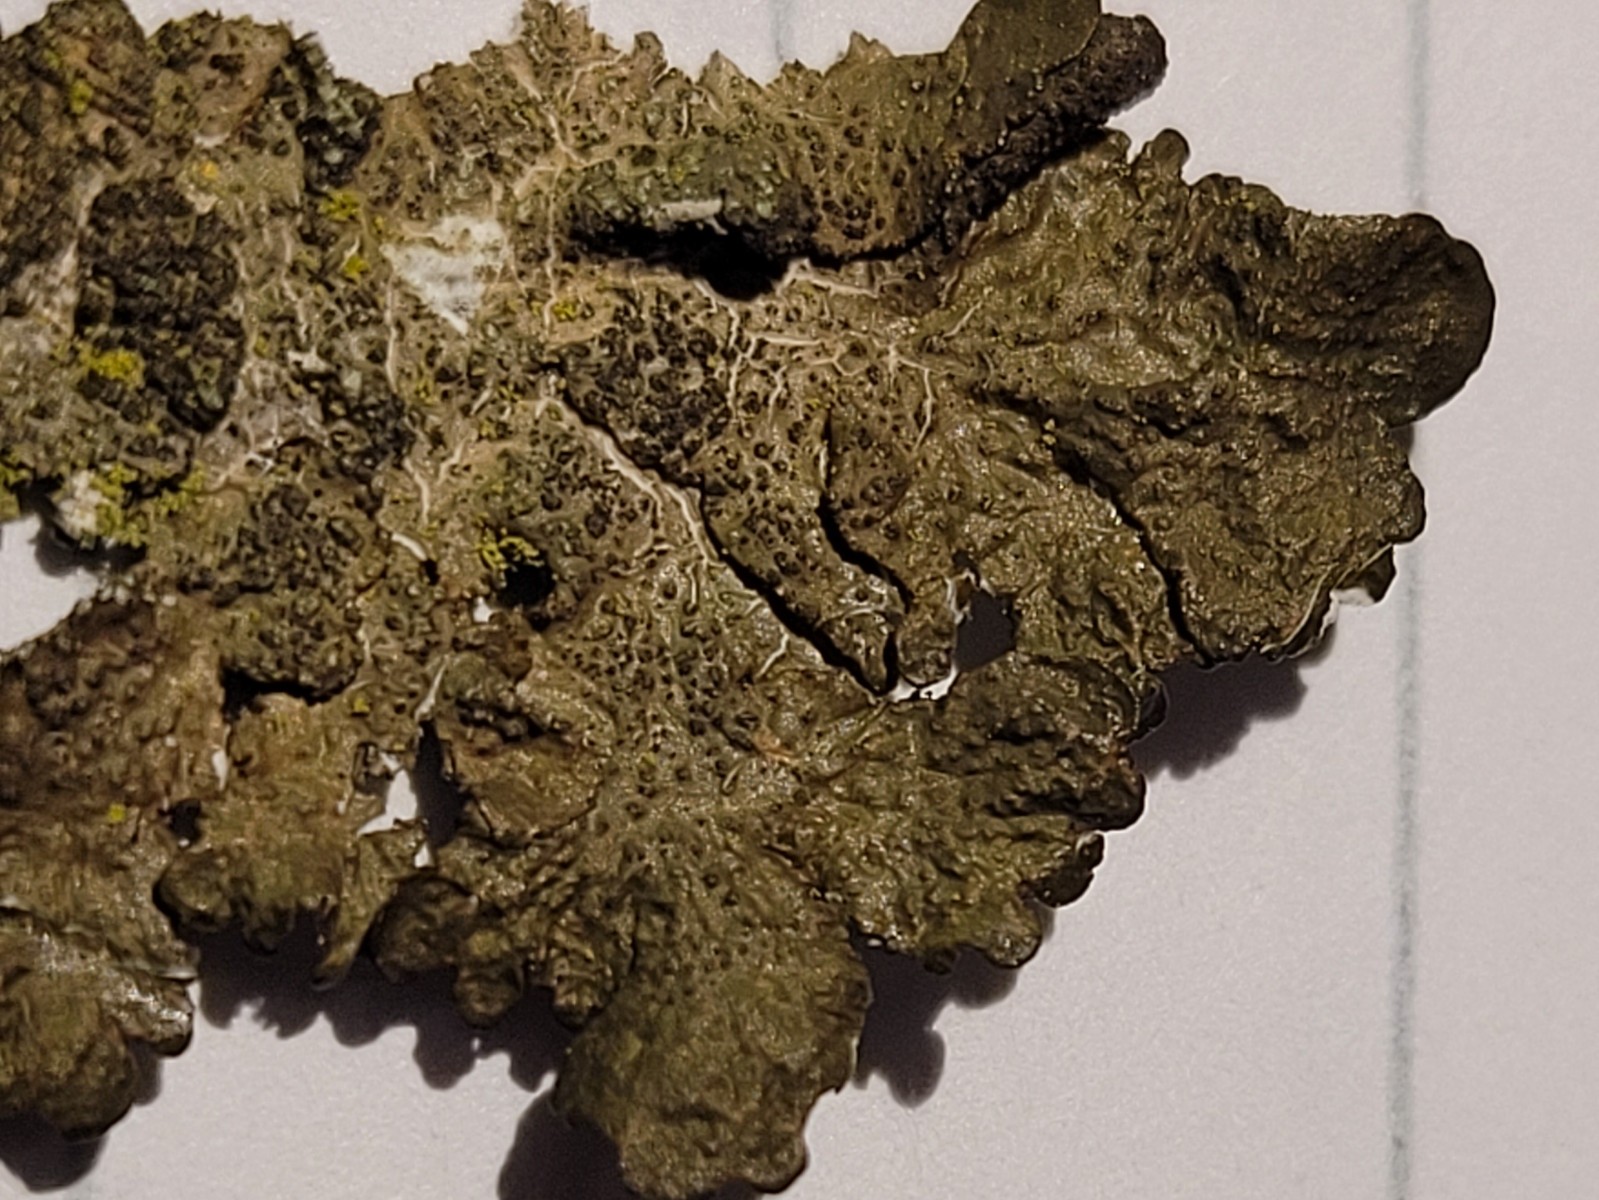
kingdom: Fungi
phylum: Ascomycota
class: Lecanoromycetes
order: Lecanorales
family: Parmeliaceae
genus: Melanelixia
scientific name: Melanelixia subaurifera
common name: guldpudret skållav
